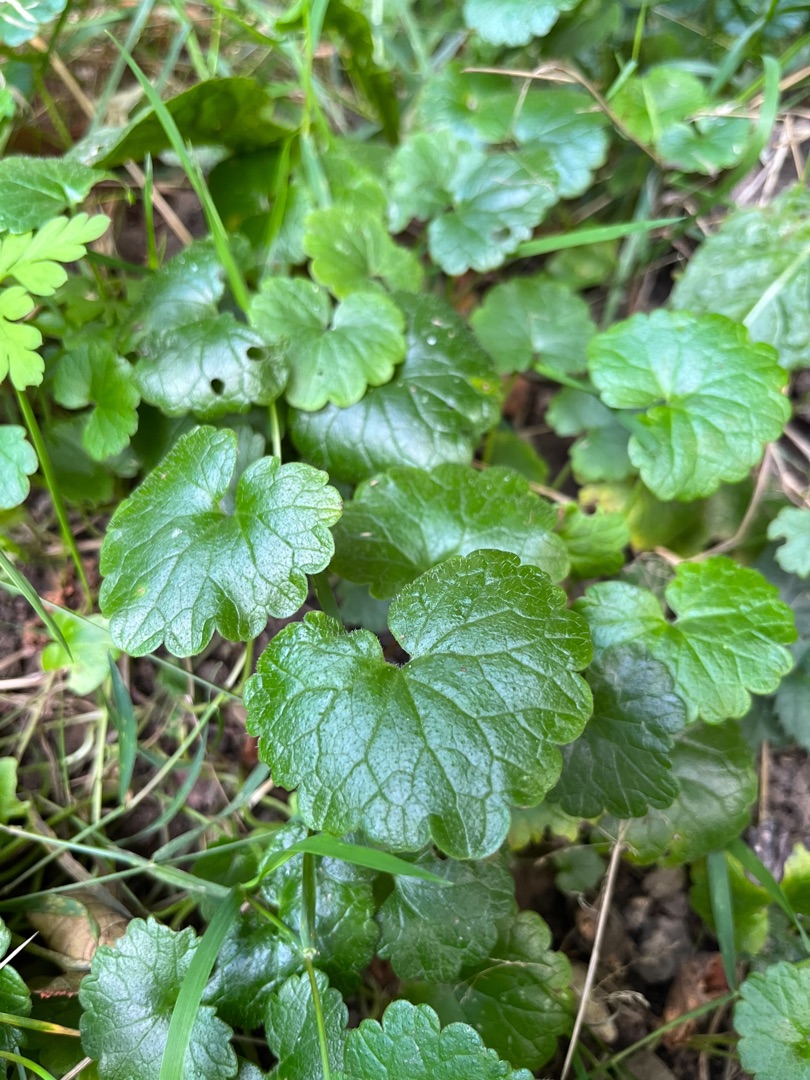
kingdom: Plantae
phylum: Tracheophyta
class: Magnoliopsida
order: Lamiales
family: Lamiaceae
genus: Glechoma
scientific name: Glechoma hederacea
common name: Korsknap
